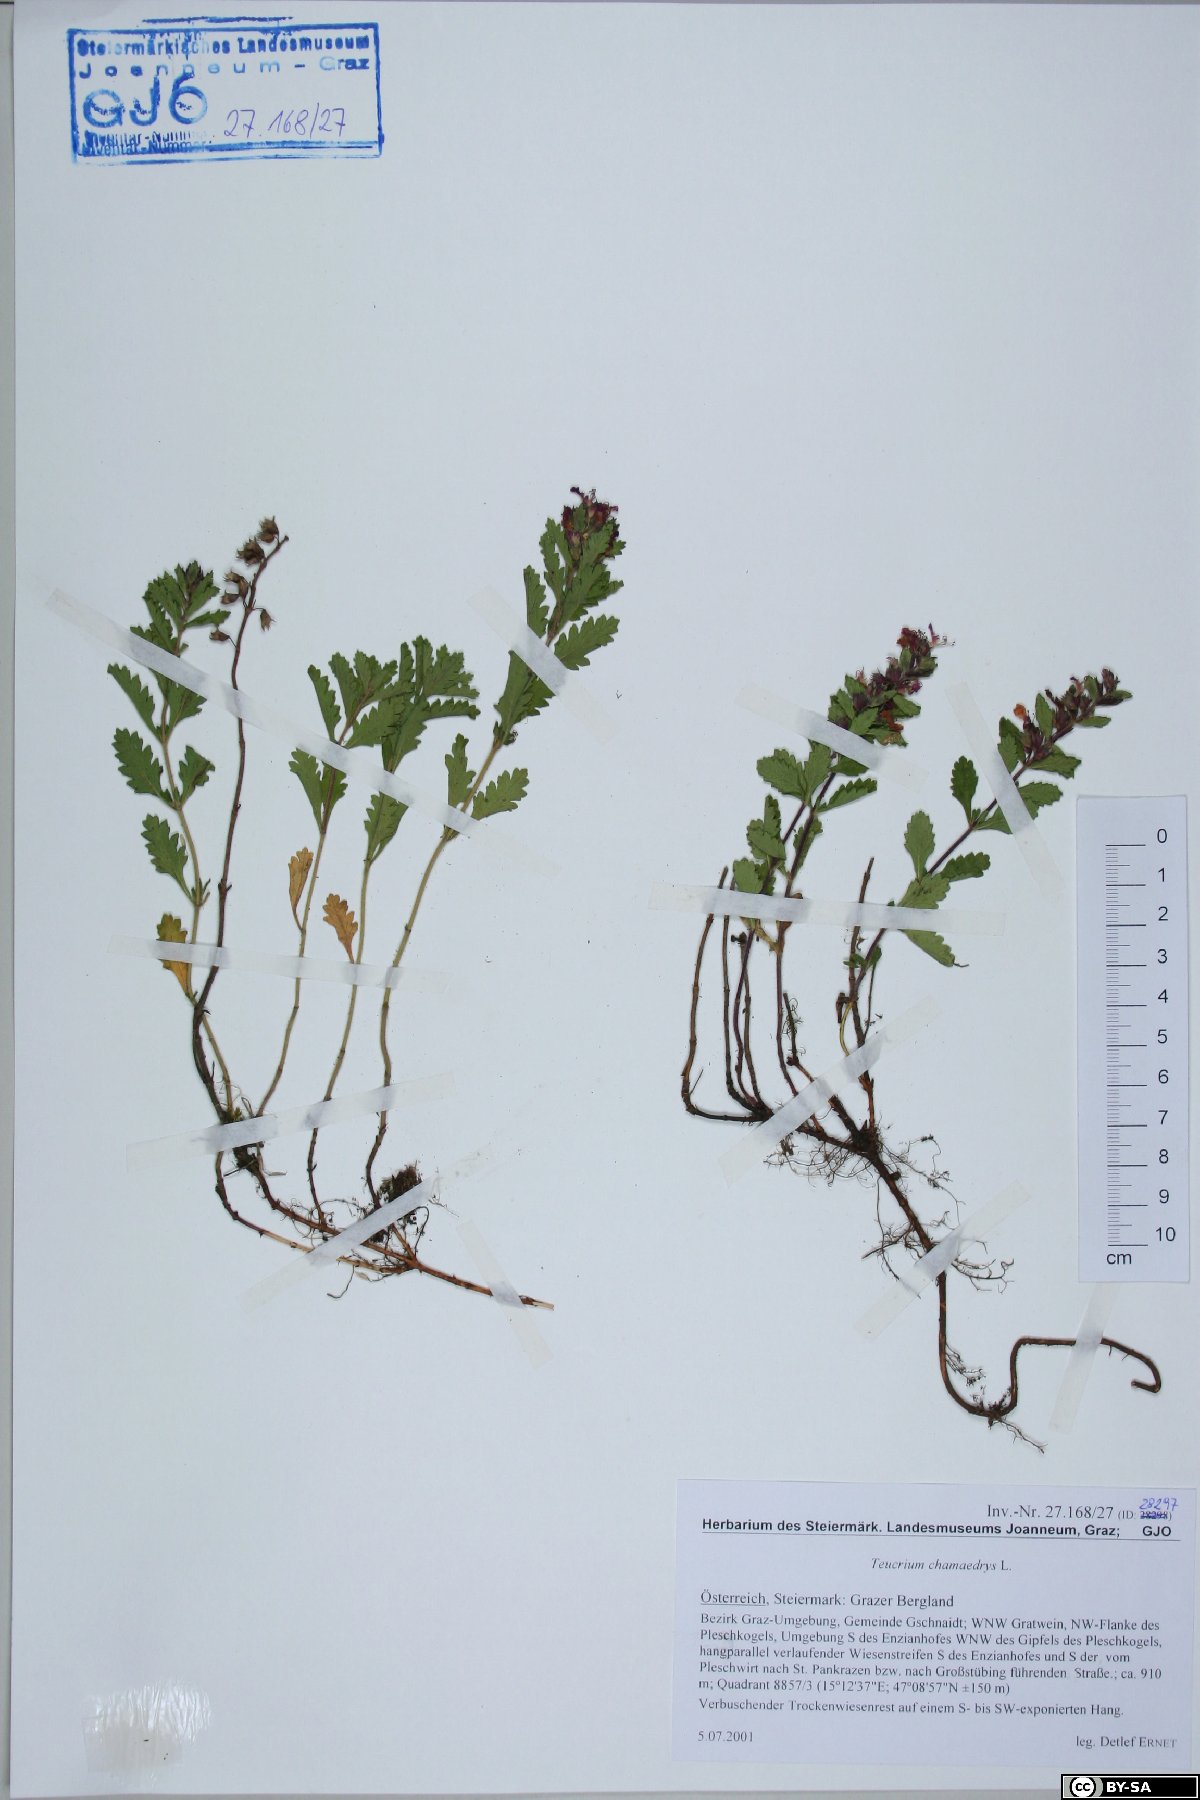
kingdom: Plantae
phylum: Tracheophyta
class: Magnoliopsida
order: Lamiales
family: Lamiaceae
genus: Teucrium
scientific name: Teucrium chamaedrys
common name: Wall germander
